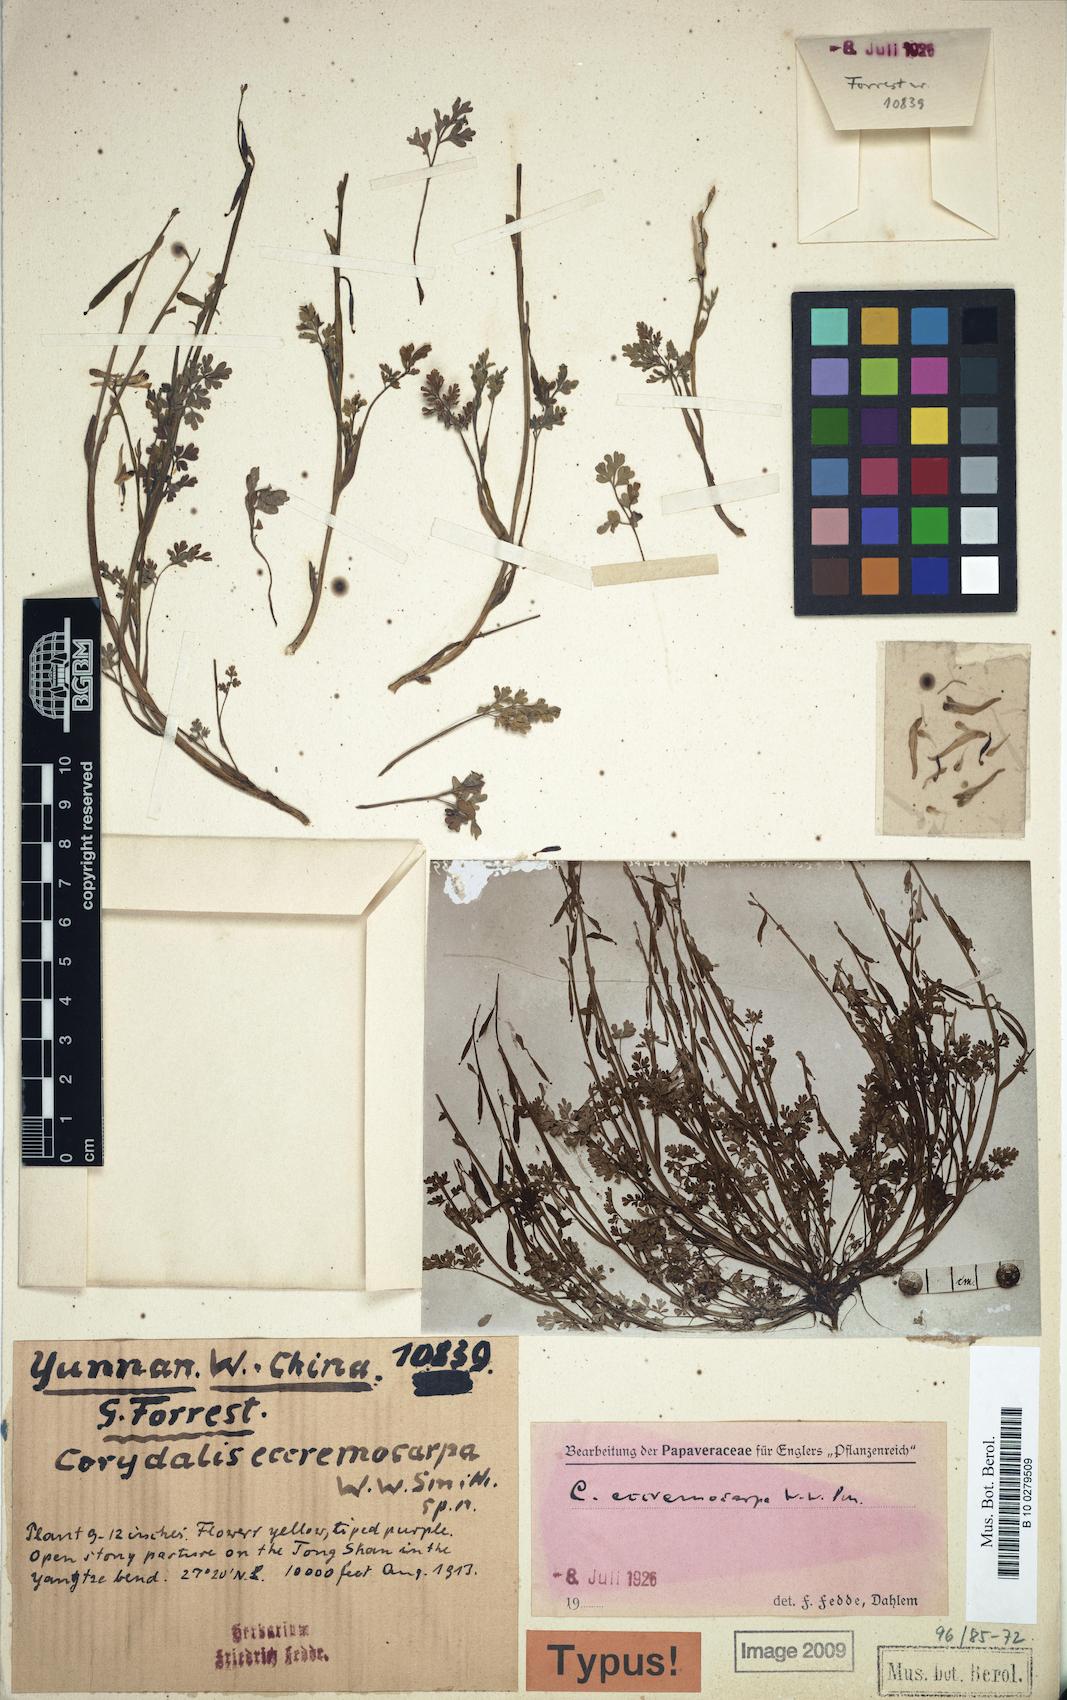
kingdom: Plantae
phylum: Tracheophyta
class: Magnoliopsida
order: Ranunculales
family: Papaveraceae
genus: Corydalis
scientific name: Corydalis drakeana
